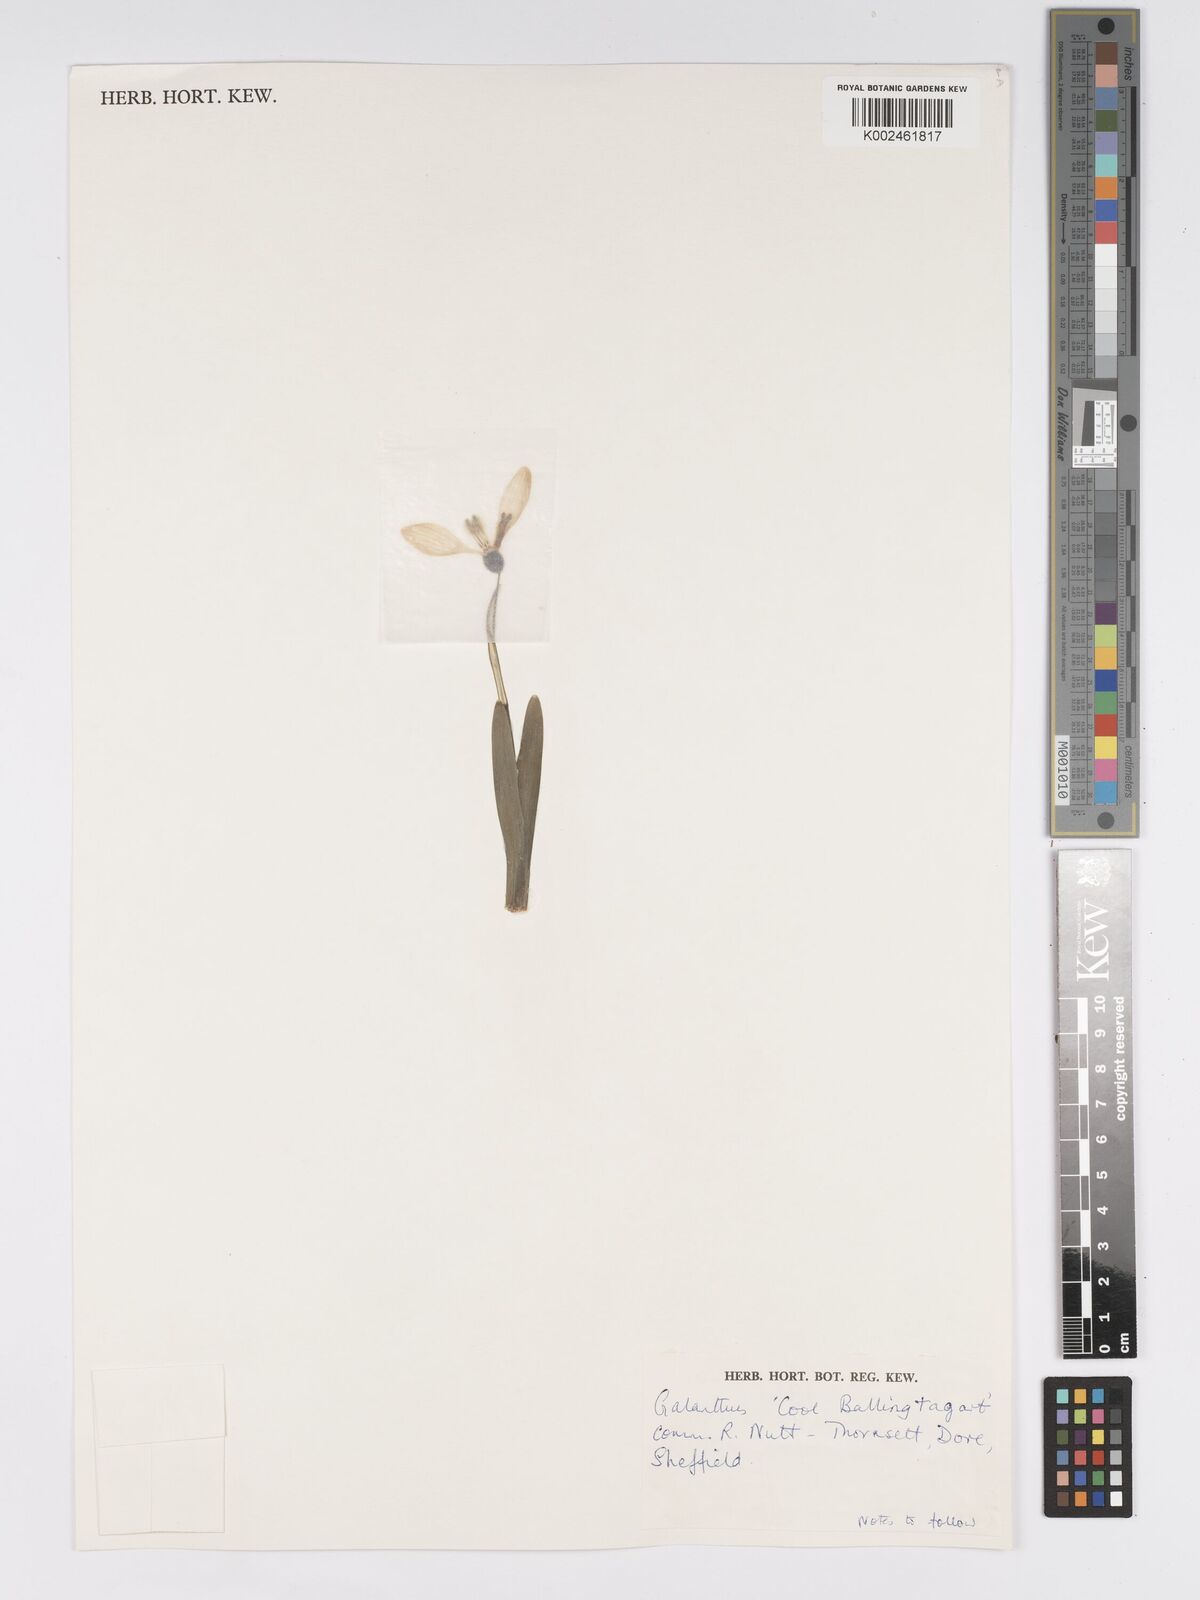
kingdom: Plantae
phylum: Tracheophyta
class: Liliopsida
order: Asparagales
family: Amaryllidaceae
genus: Galanthus
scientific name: Galanthus
